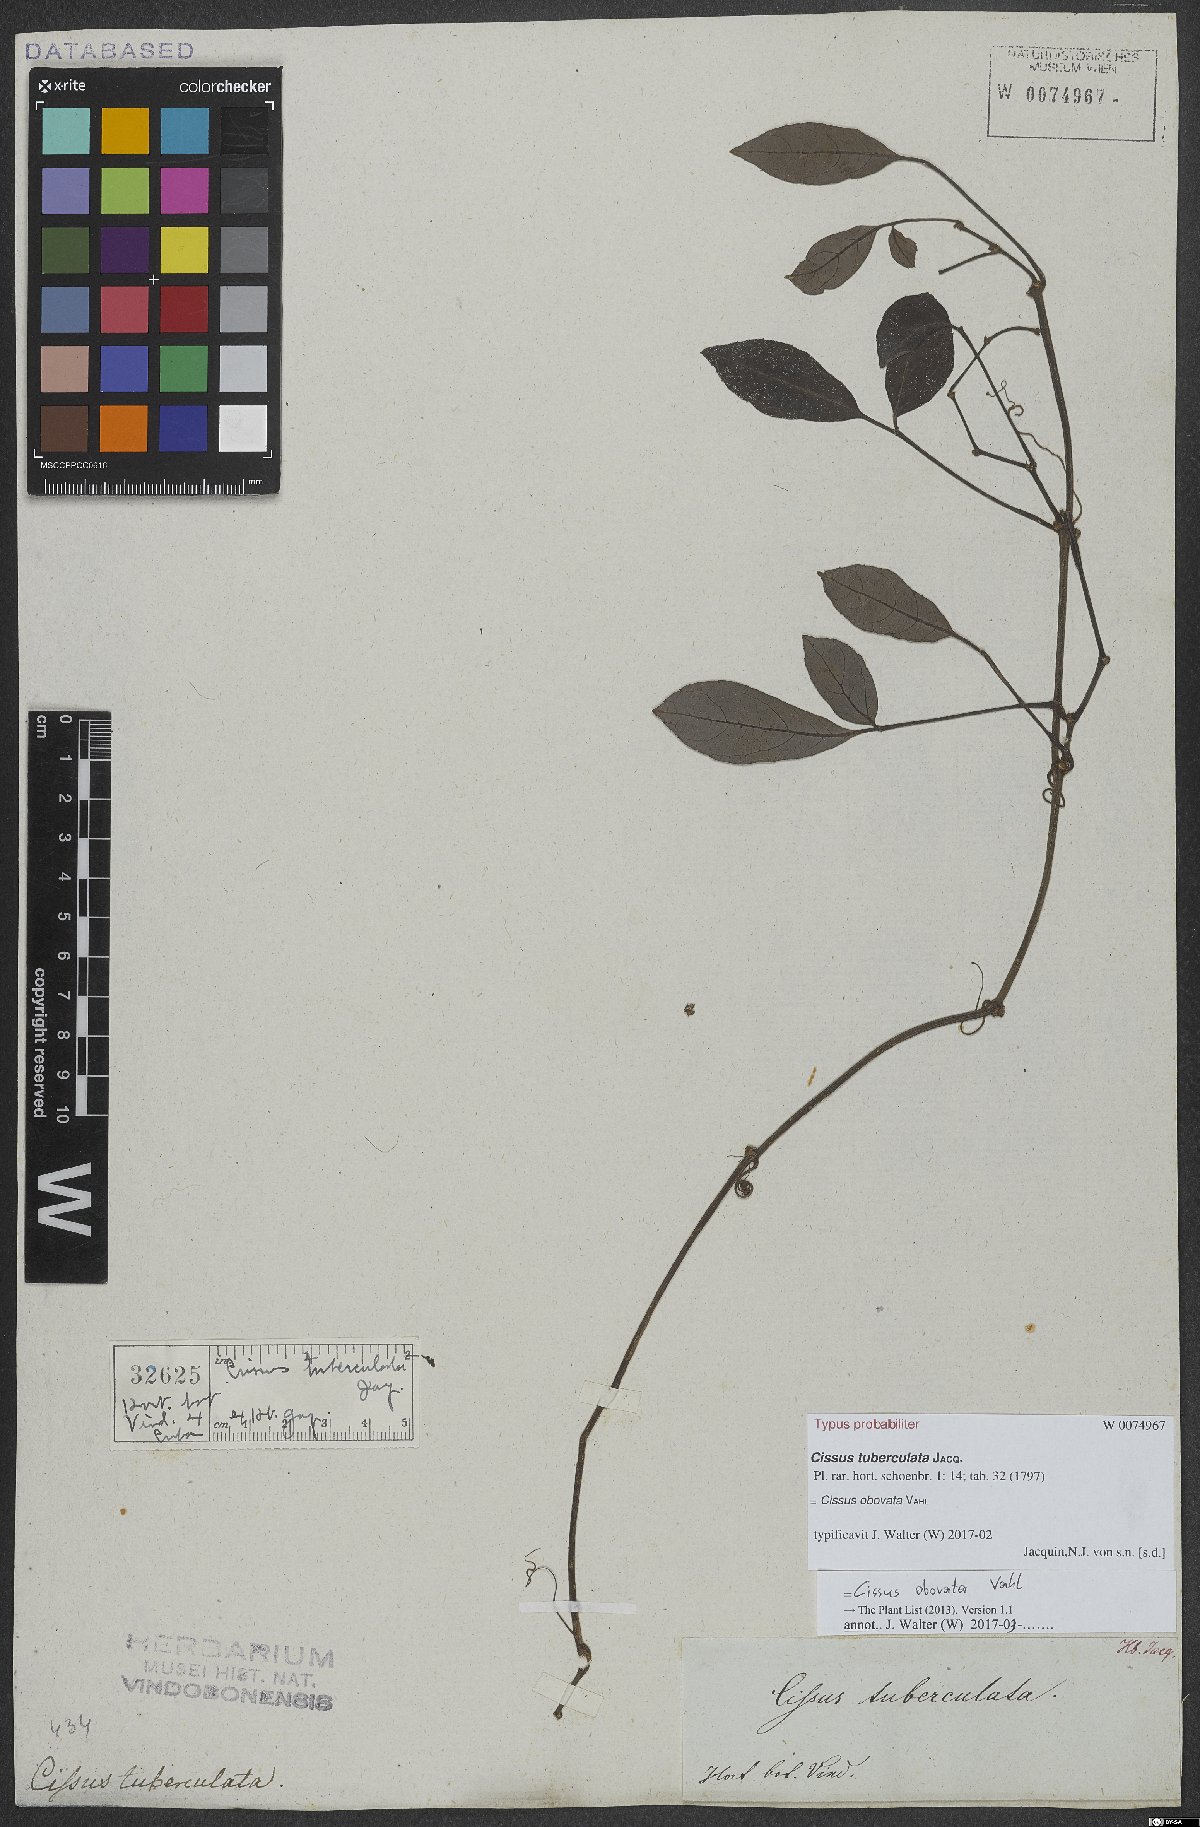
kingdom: Plantae
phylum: Tracheophyta
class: Magnoliopsida
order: Vitales
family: Vitaceae
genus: Cissus
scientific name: Cissus obovata
